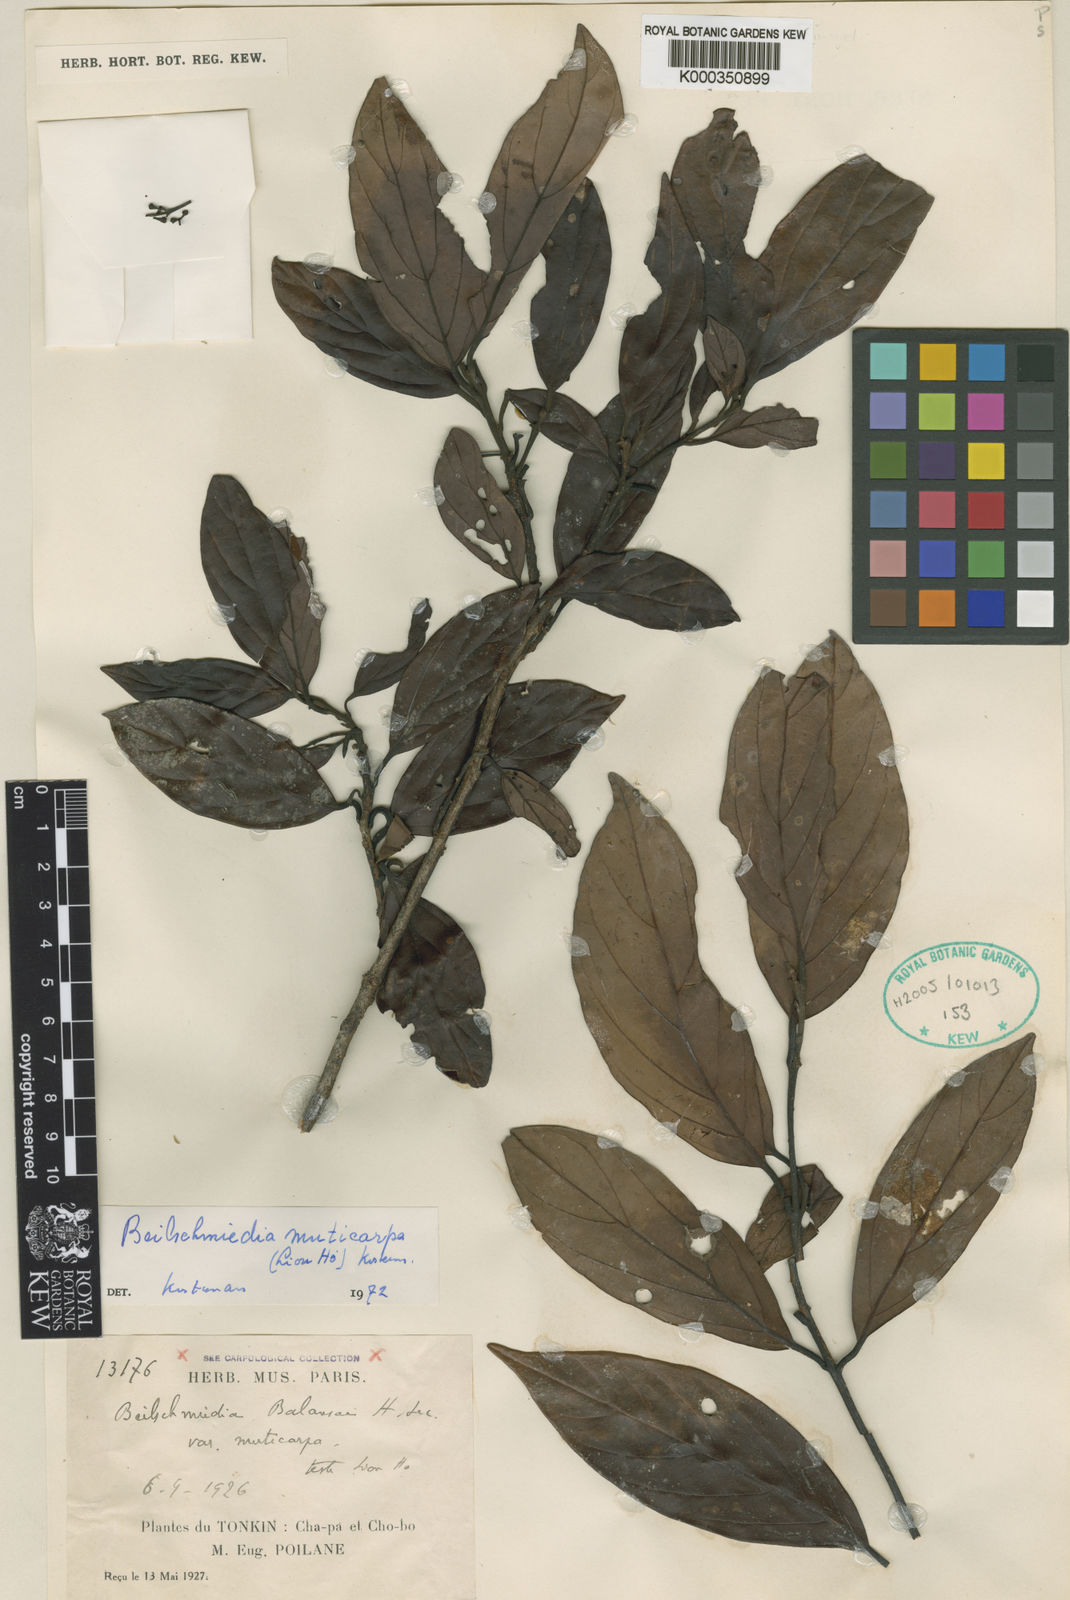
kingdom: Plantae
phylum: Tracheophyta
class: Magnoliopsida
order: Laurales
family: Lauraceae
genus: Beilschmiedia
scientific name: Beilschmiedia
